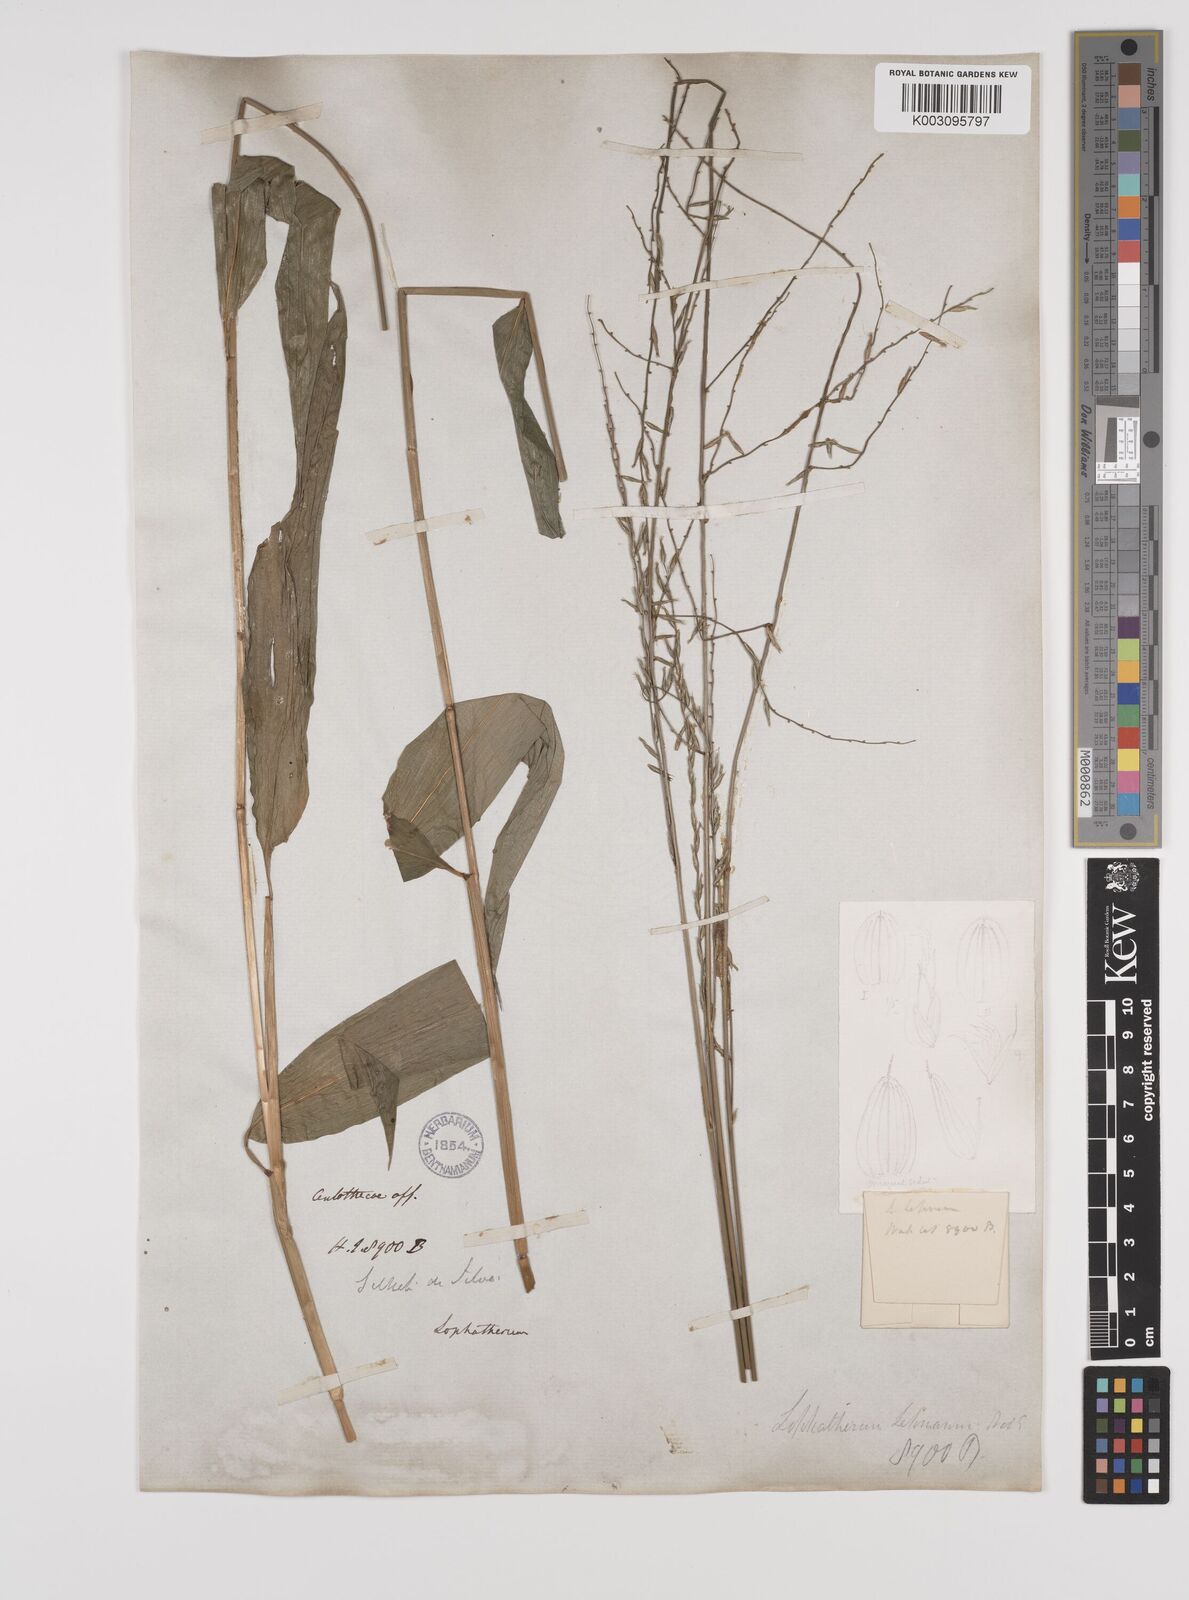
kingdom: Plantae
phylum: Tracheophyta
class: Liliopsida
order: Poales
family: Poaceae
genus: Lophatherum
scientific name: Lophatherum gracile
